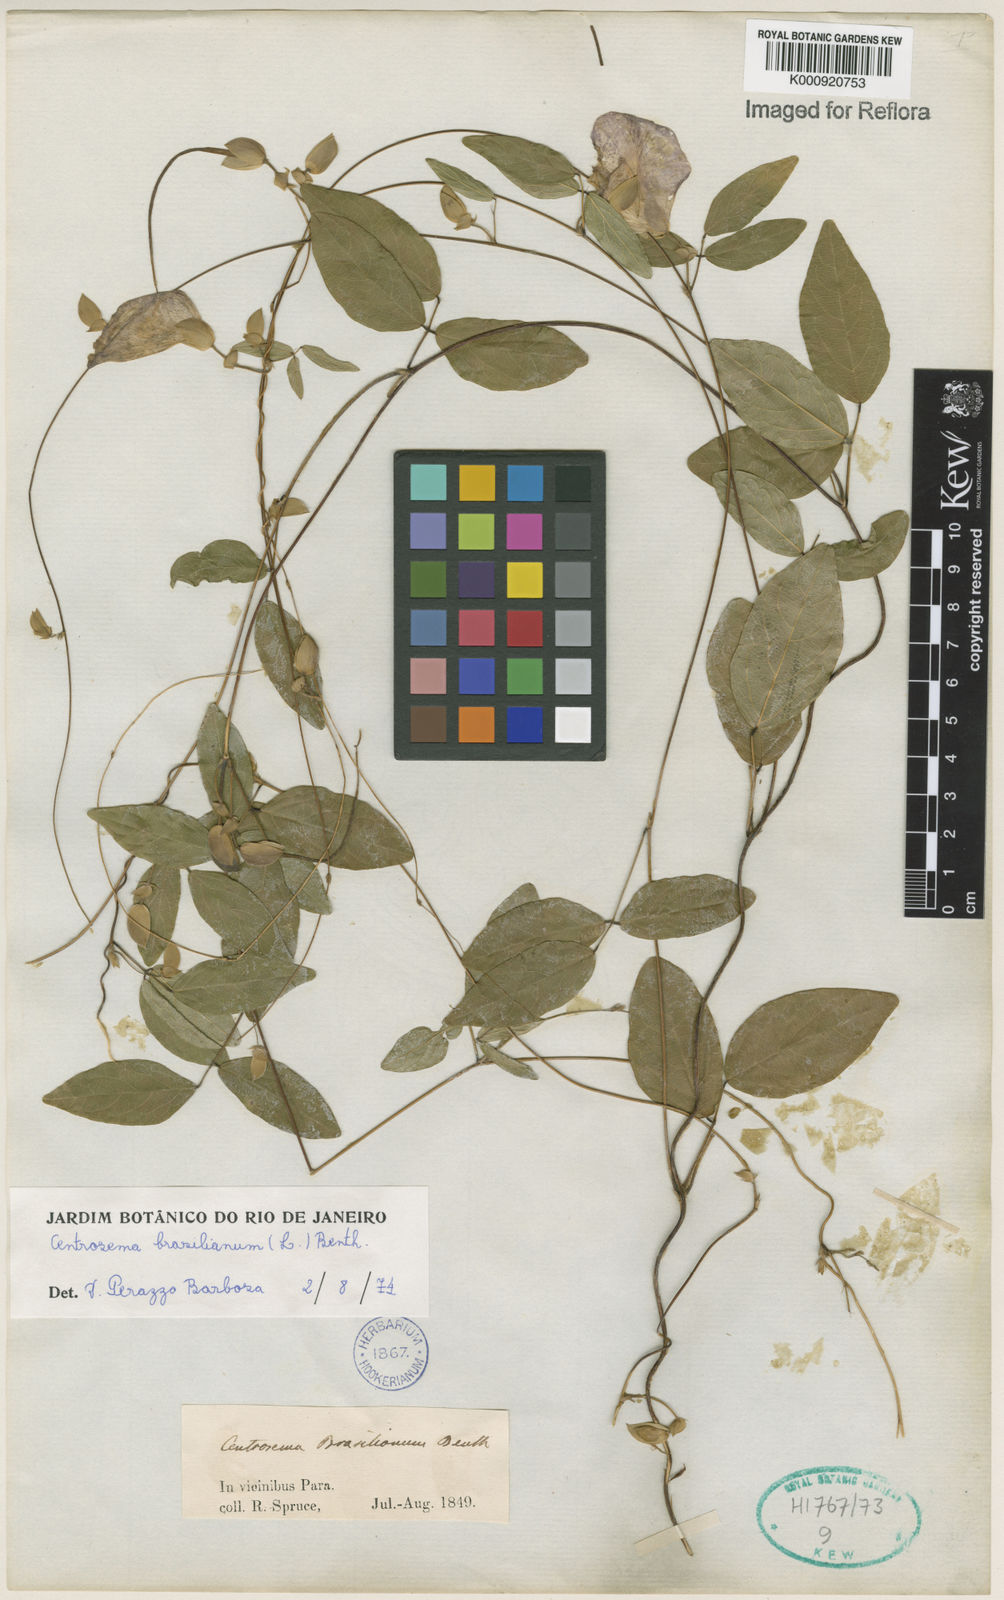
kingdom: Plantae
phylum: Tracheophyta
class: Magnoliopsida
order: Fabales
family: Fabaceae
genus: Centrosema
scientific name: Centrosema brasilianum
